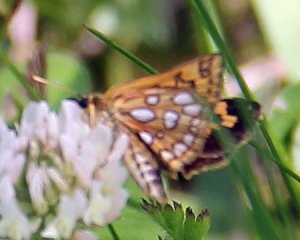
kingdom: Animalia
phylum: Arthropoda
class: Insecta
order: Lepidoptera
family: Hesperiidae
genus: Carterocephalus
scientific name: Carterocephalus palaemon
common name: Chequered Skipper
